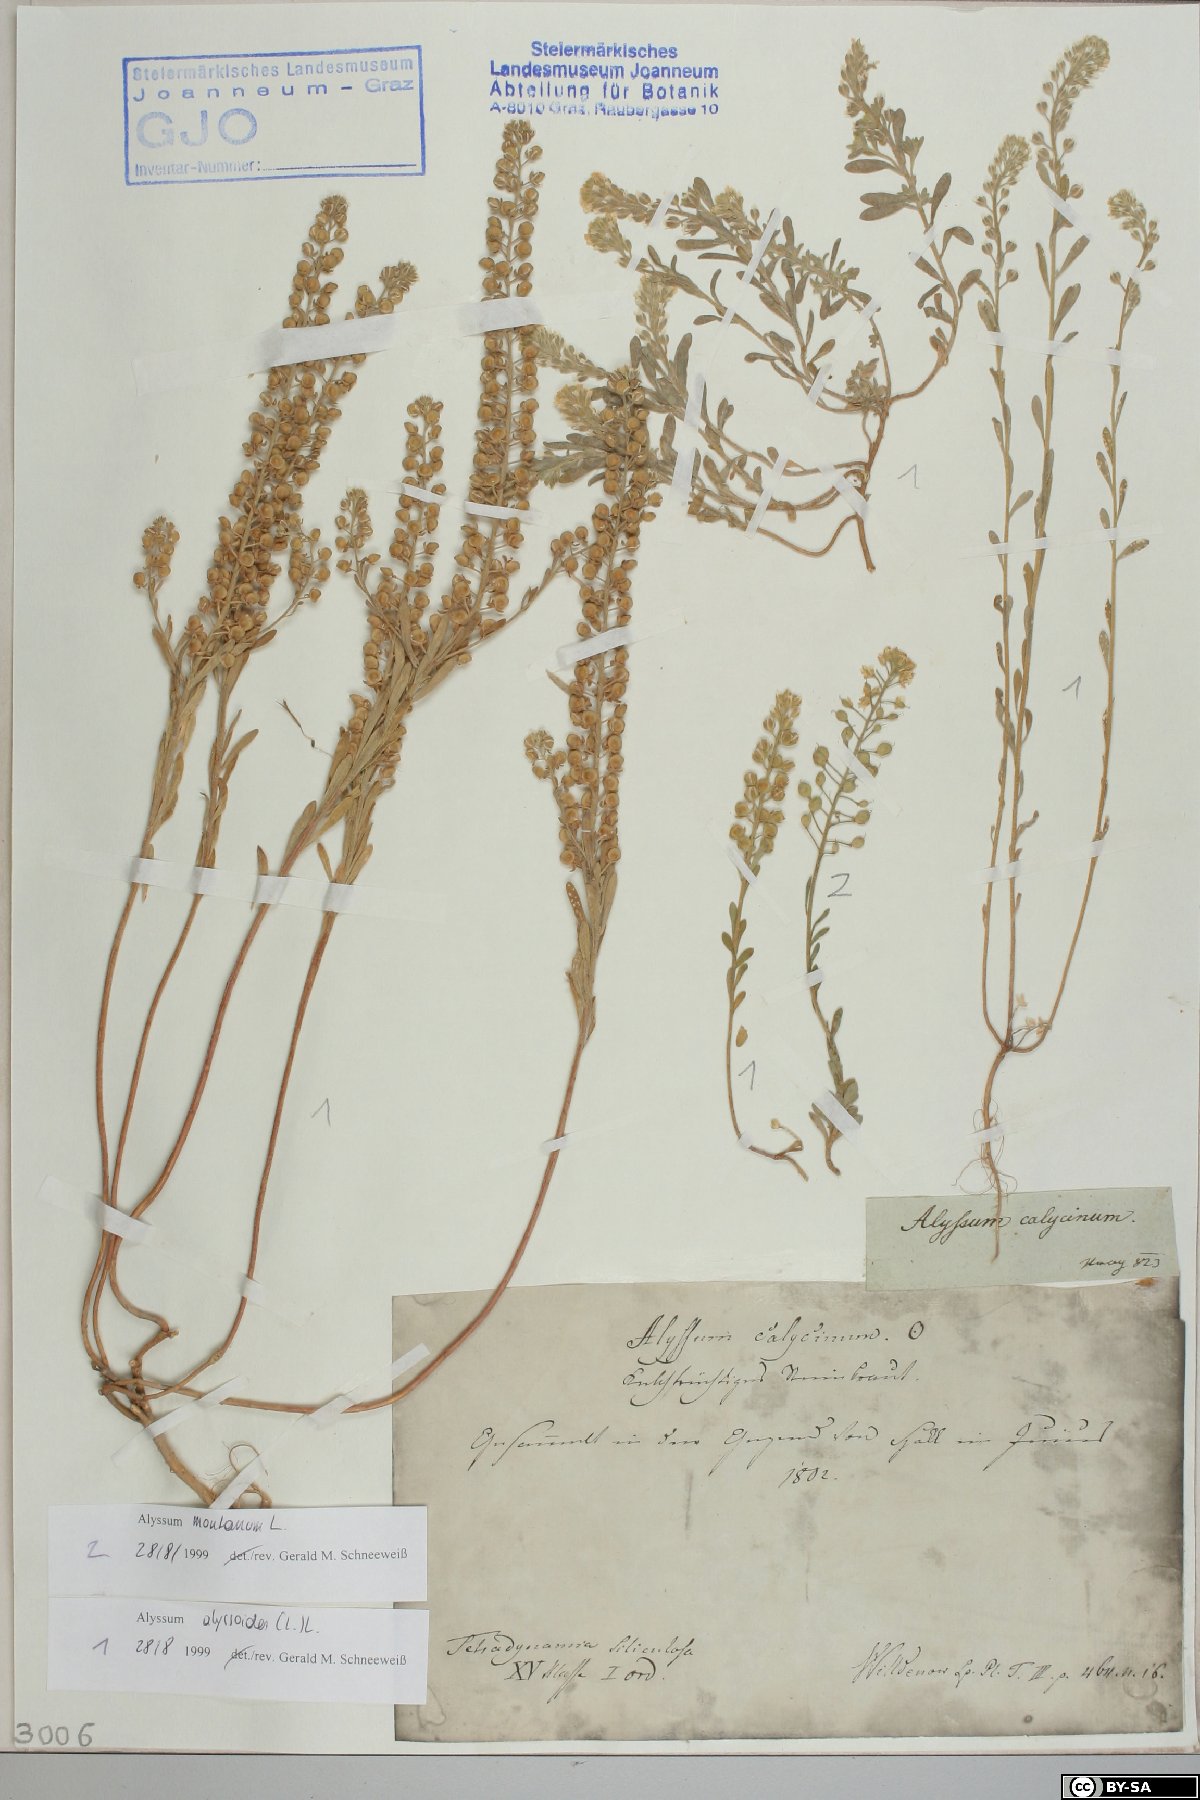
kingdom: Plantae
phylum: Tracheophyta
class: Magnoliopsida
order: Brassicales
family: Brassicaceae
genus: Alyssum
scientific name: Alyssum montanum
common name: Mountain alison
